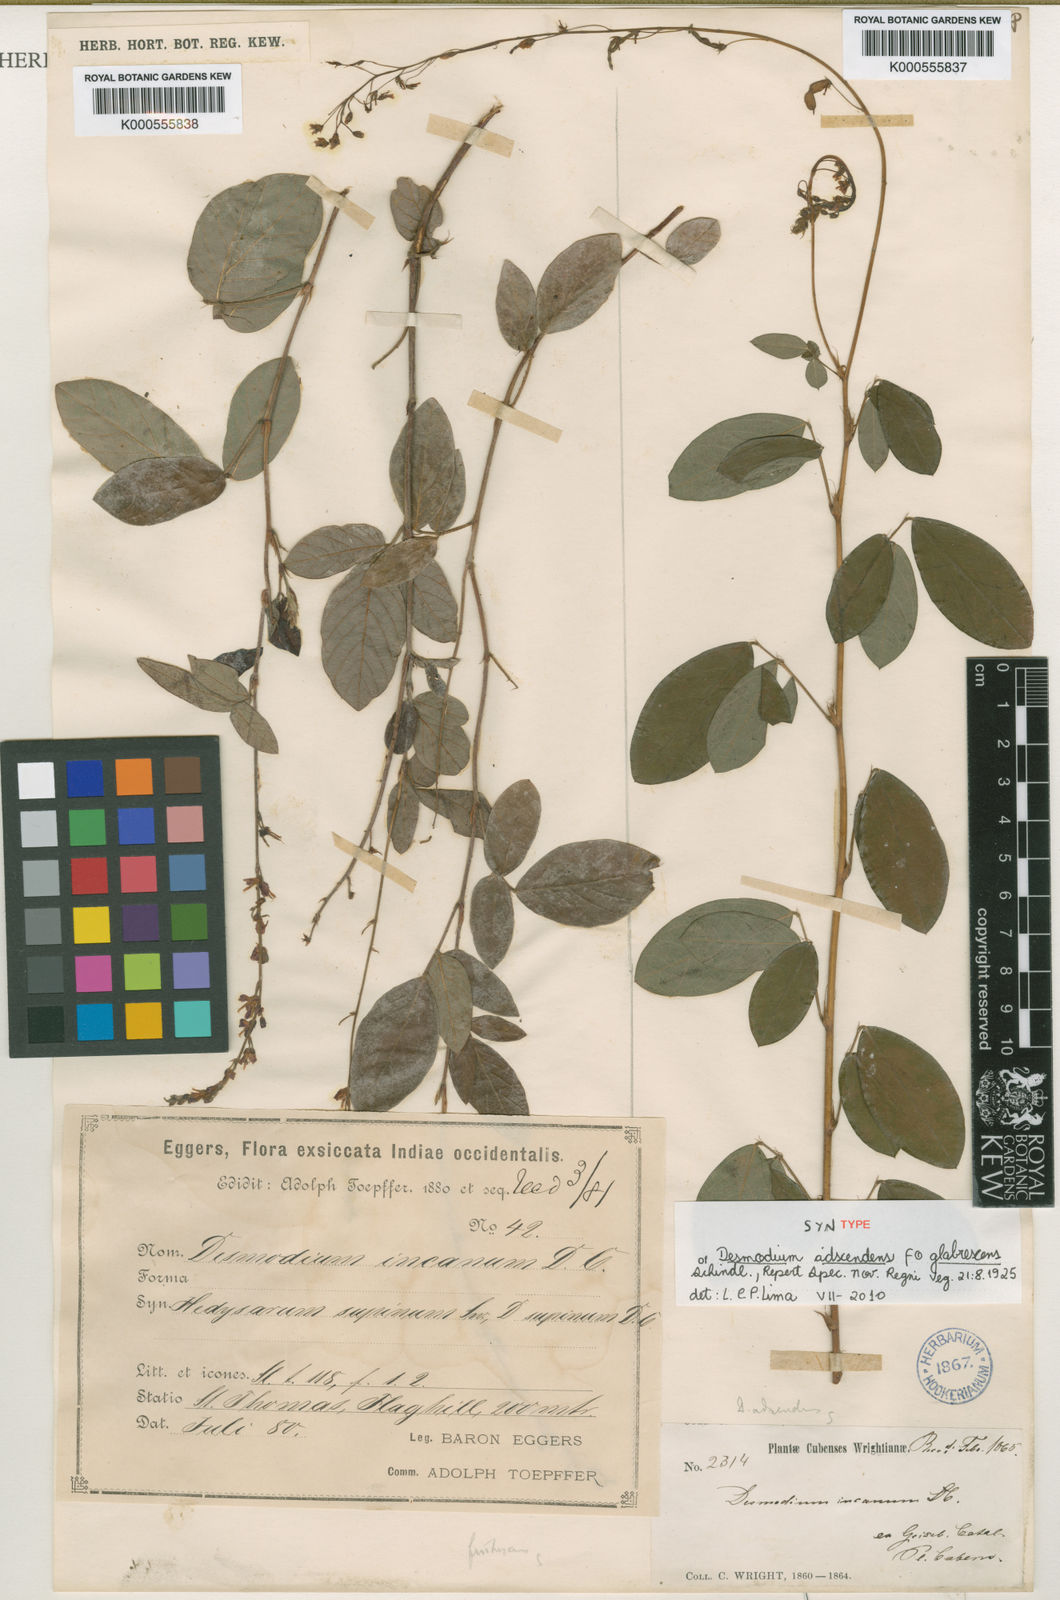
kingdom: Plantae
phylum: Tracheophyta
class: Magnoliopsida
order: Fabales
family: Fabaceae
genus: Grona
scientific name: Grona adscendens
